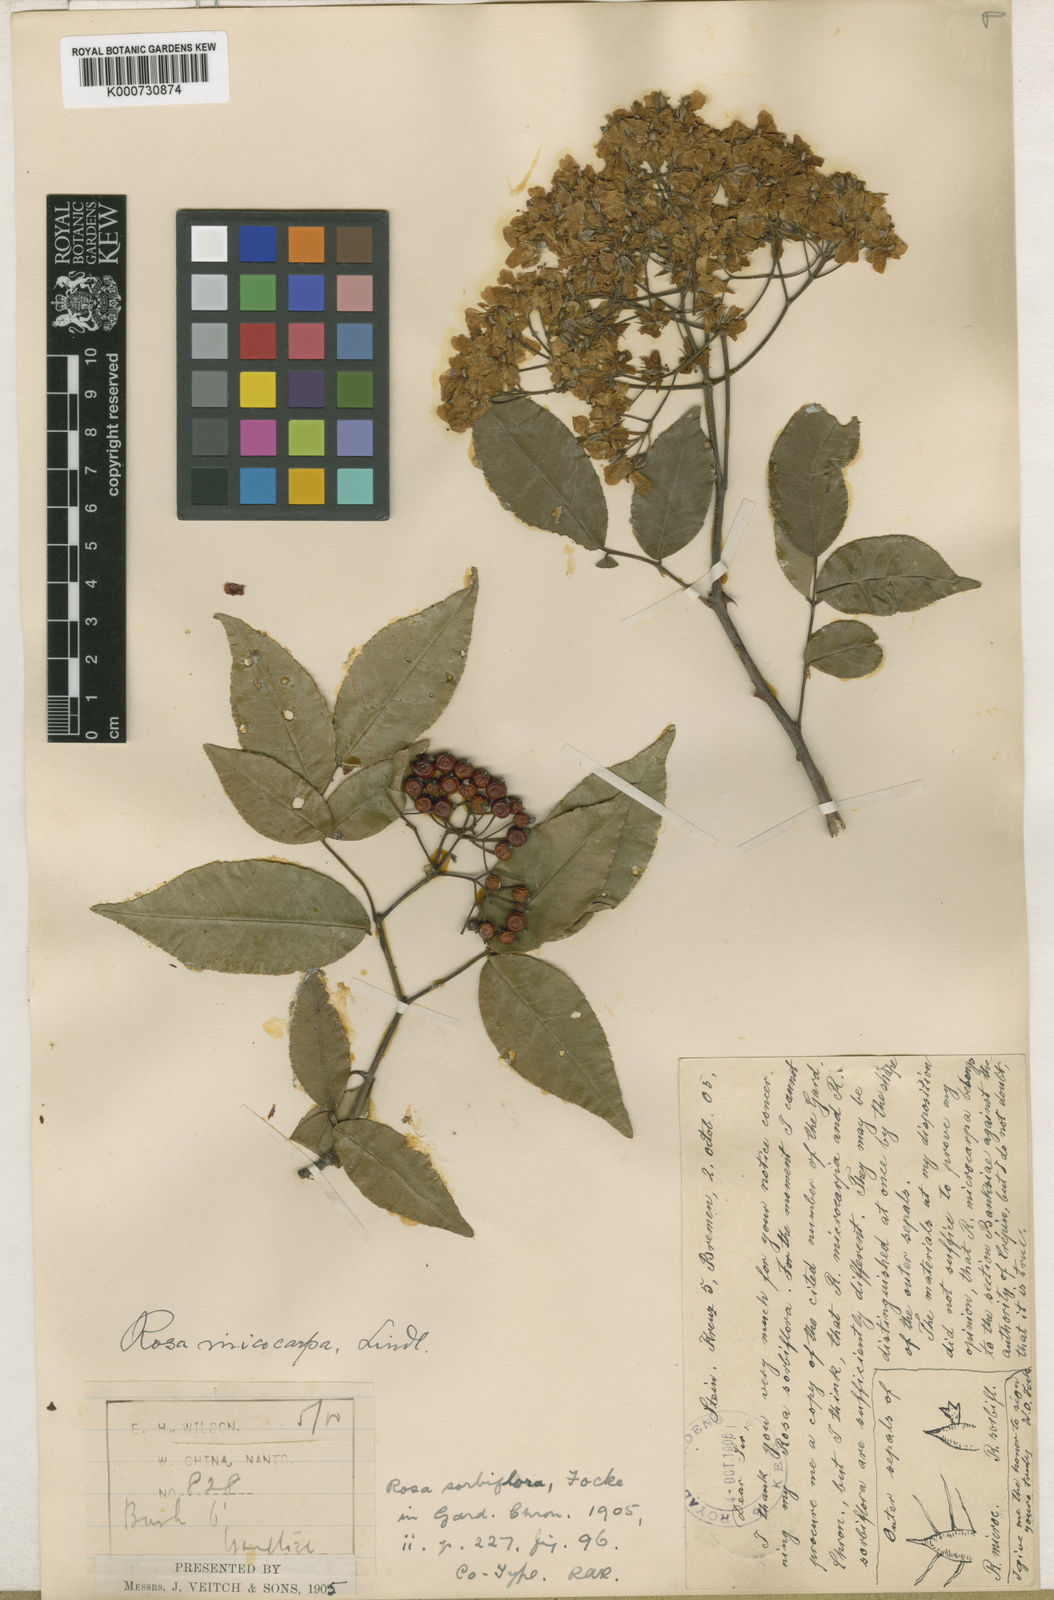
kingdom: Plantae
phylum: Tracheophyta
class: Magnoliopsida
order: Rosales
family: Rosaceae
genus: Rosa
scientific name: Rosa indica
